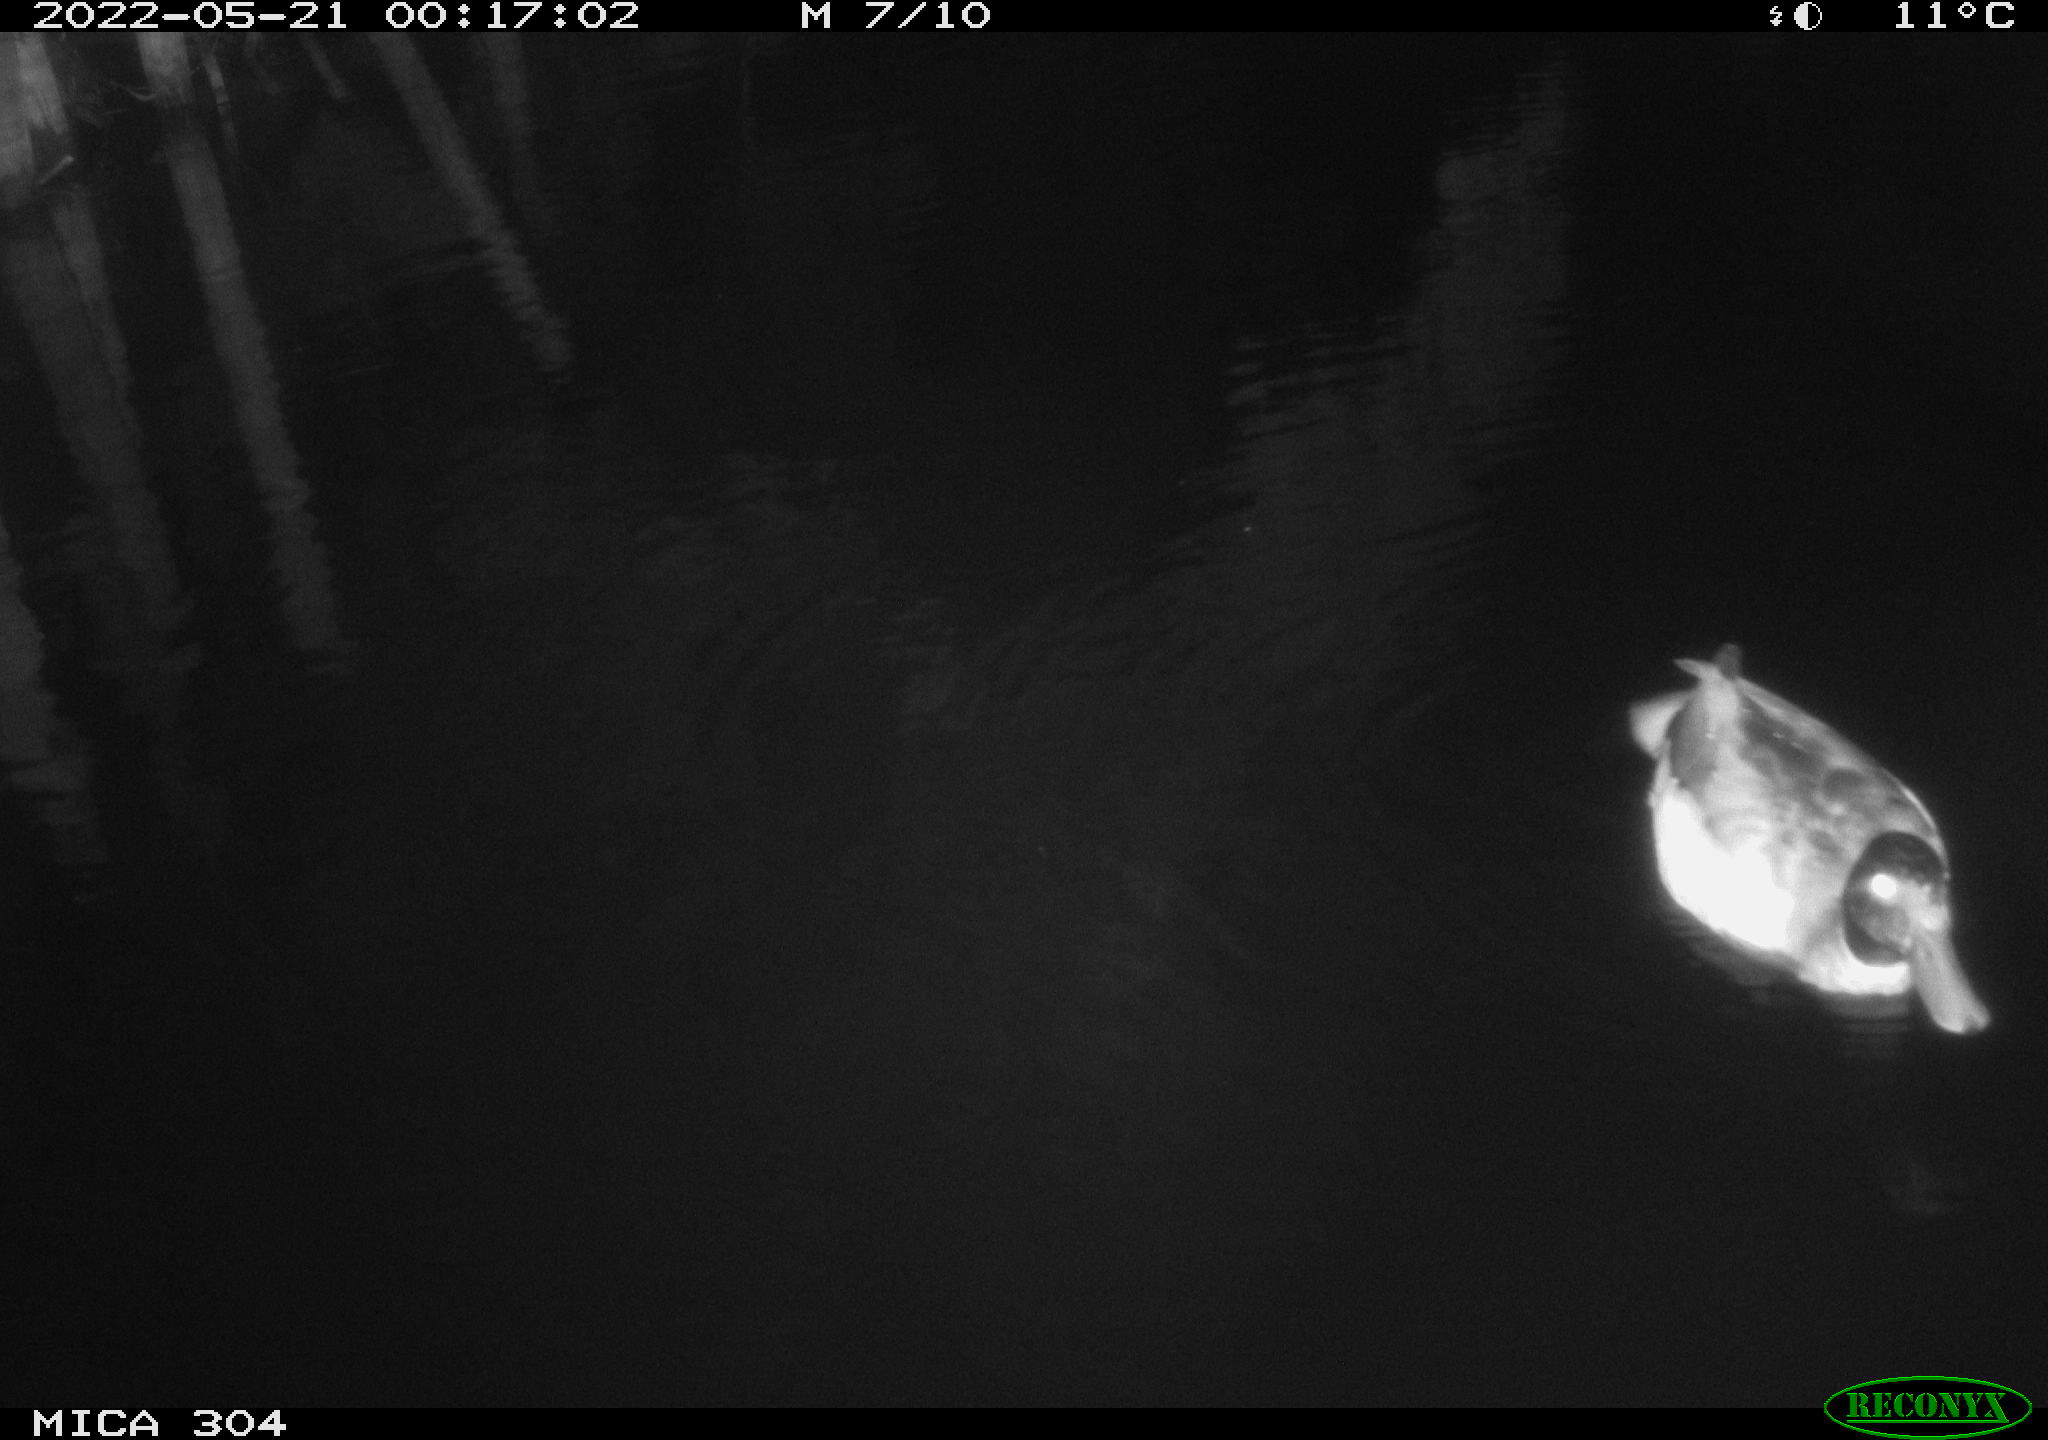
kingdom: Animalia
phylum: Chordata
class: Aves
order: Anseriformes
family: Anatidae
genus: Anas
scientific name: Anas platyrhynchos
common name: Mallard
